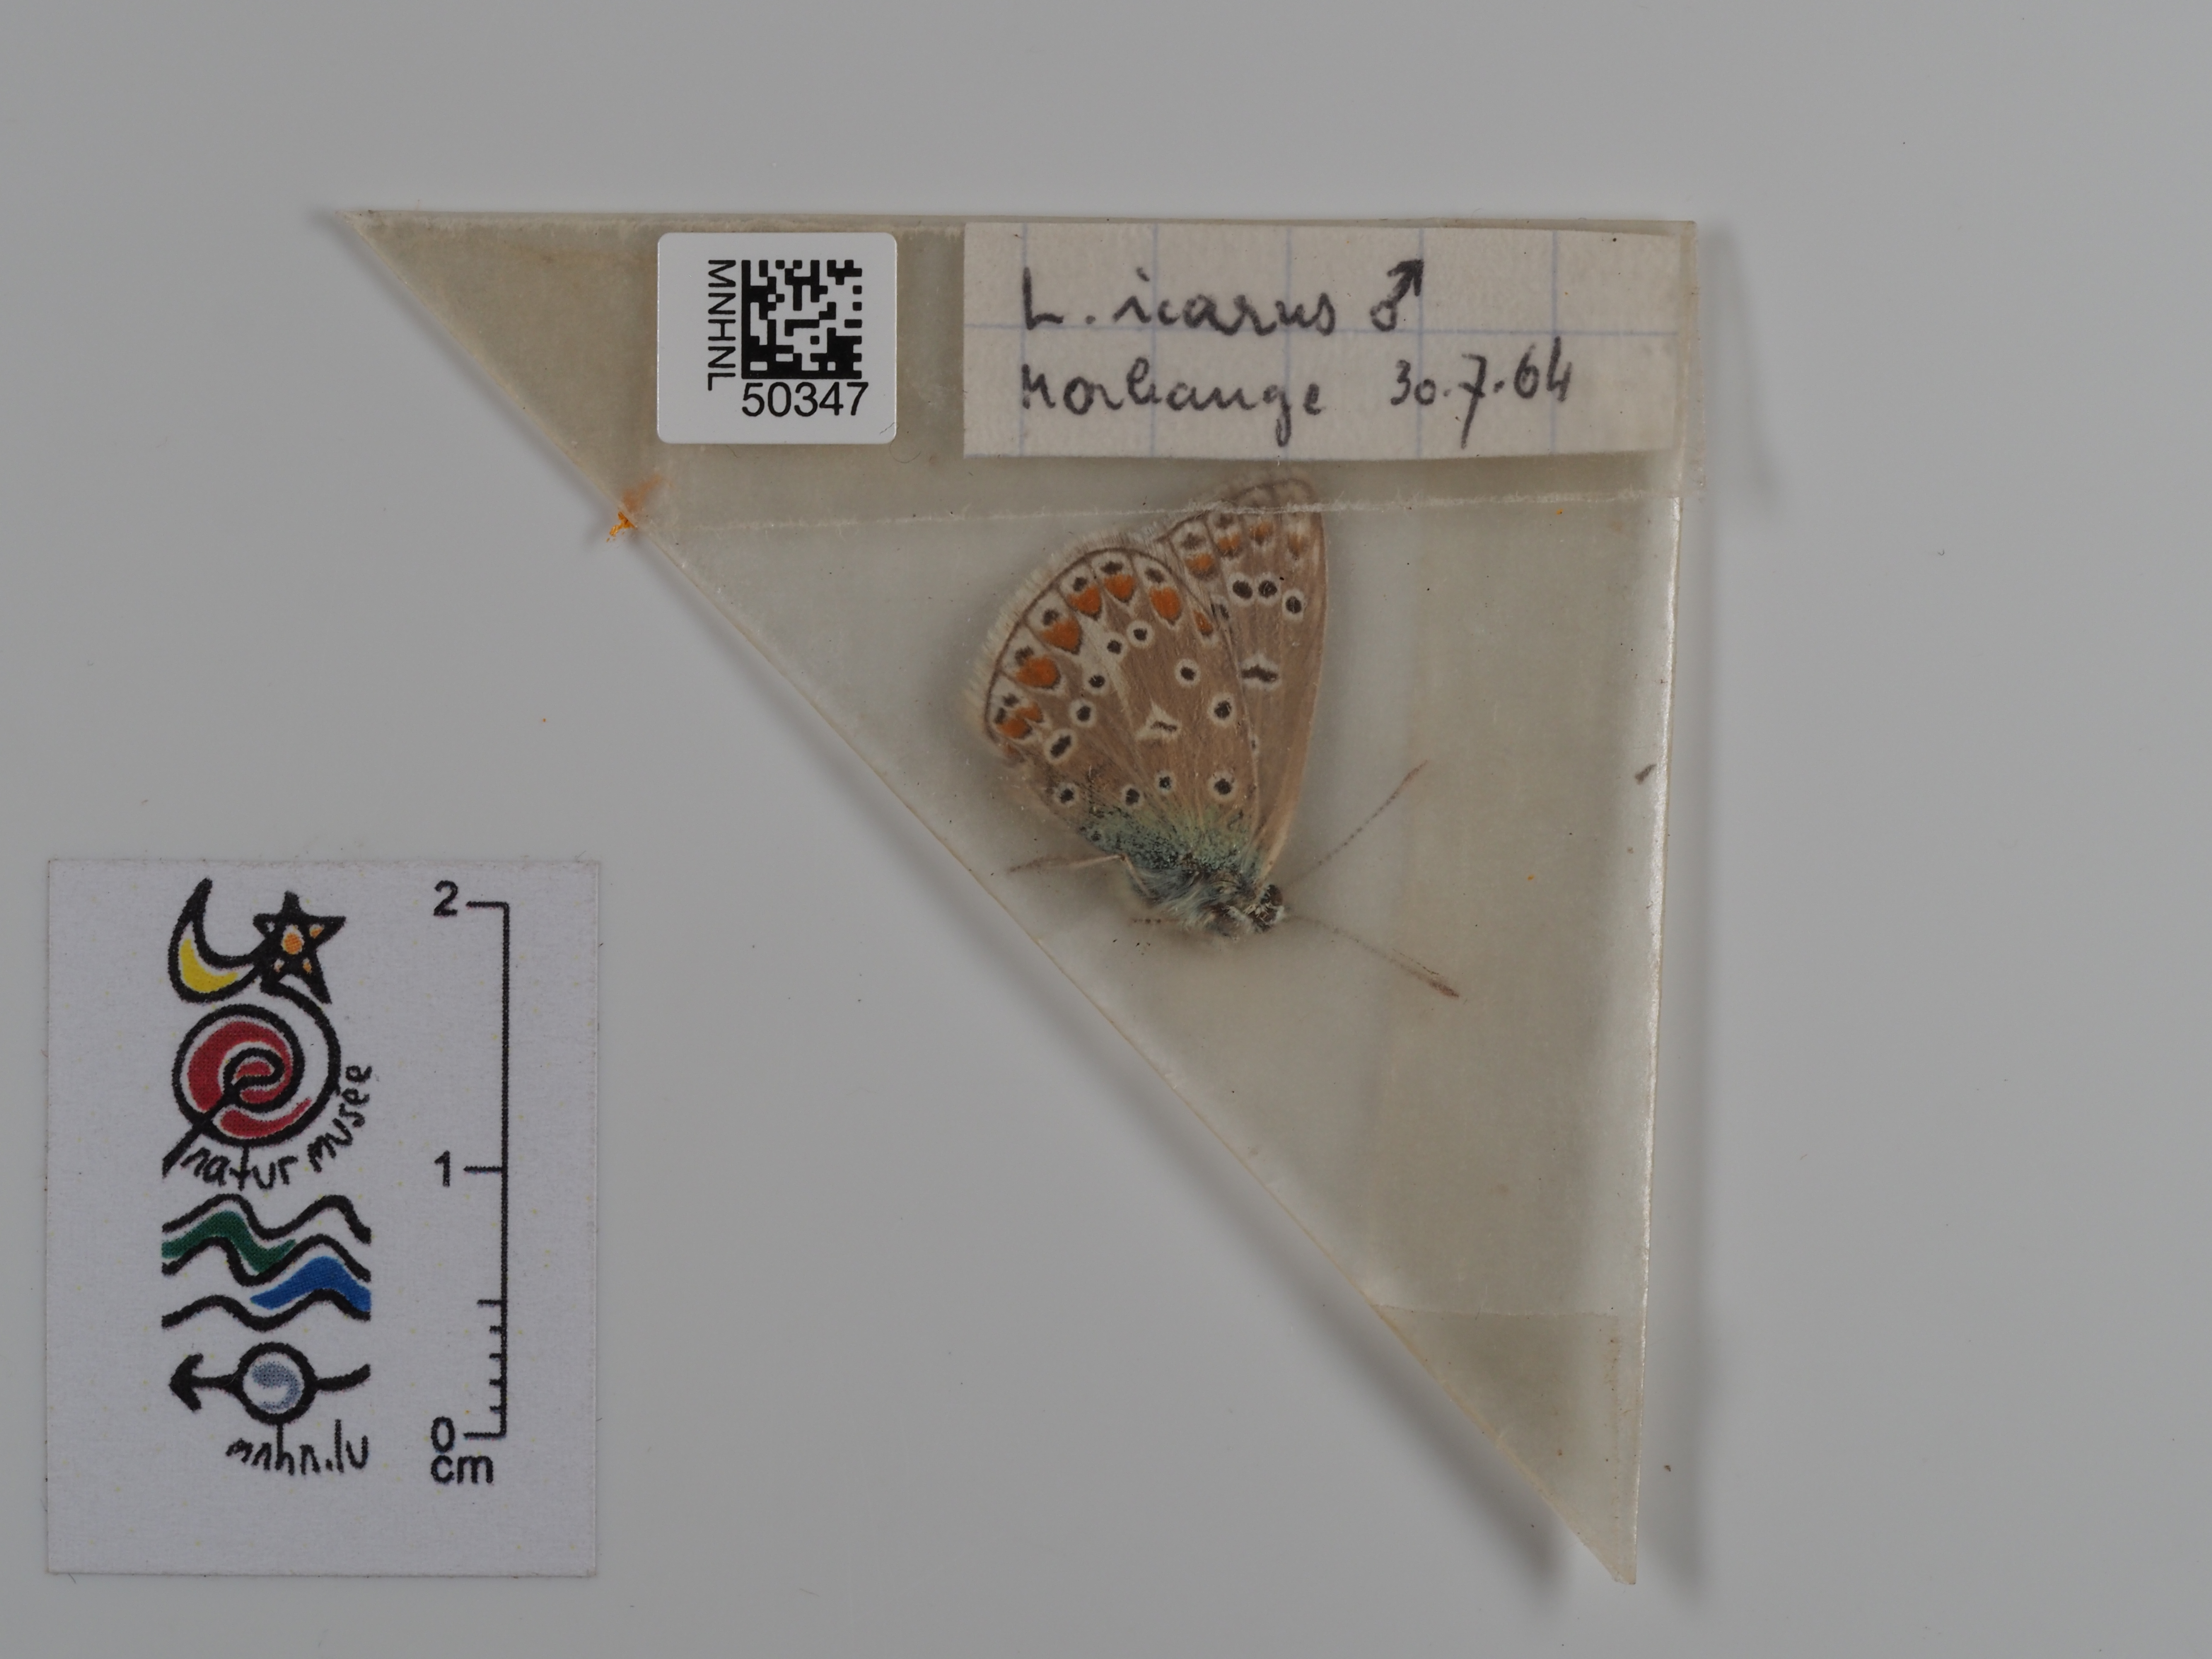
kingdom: Animalia
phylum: Arthropoda
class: Insecta
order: Lepidoptera
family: Lycaenidae
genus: Polyommatus
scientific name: Polyommatus icarus
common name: Common blue
